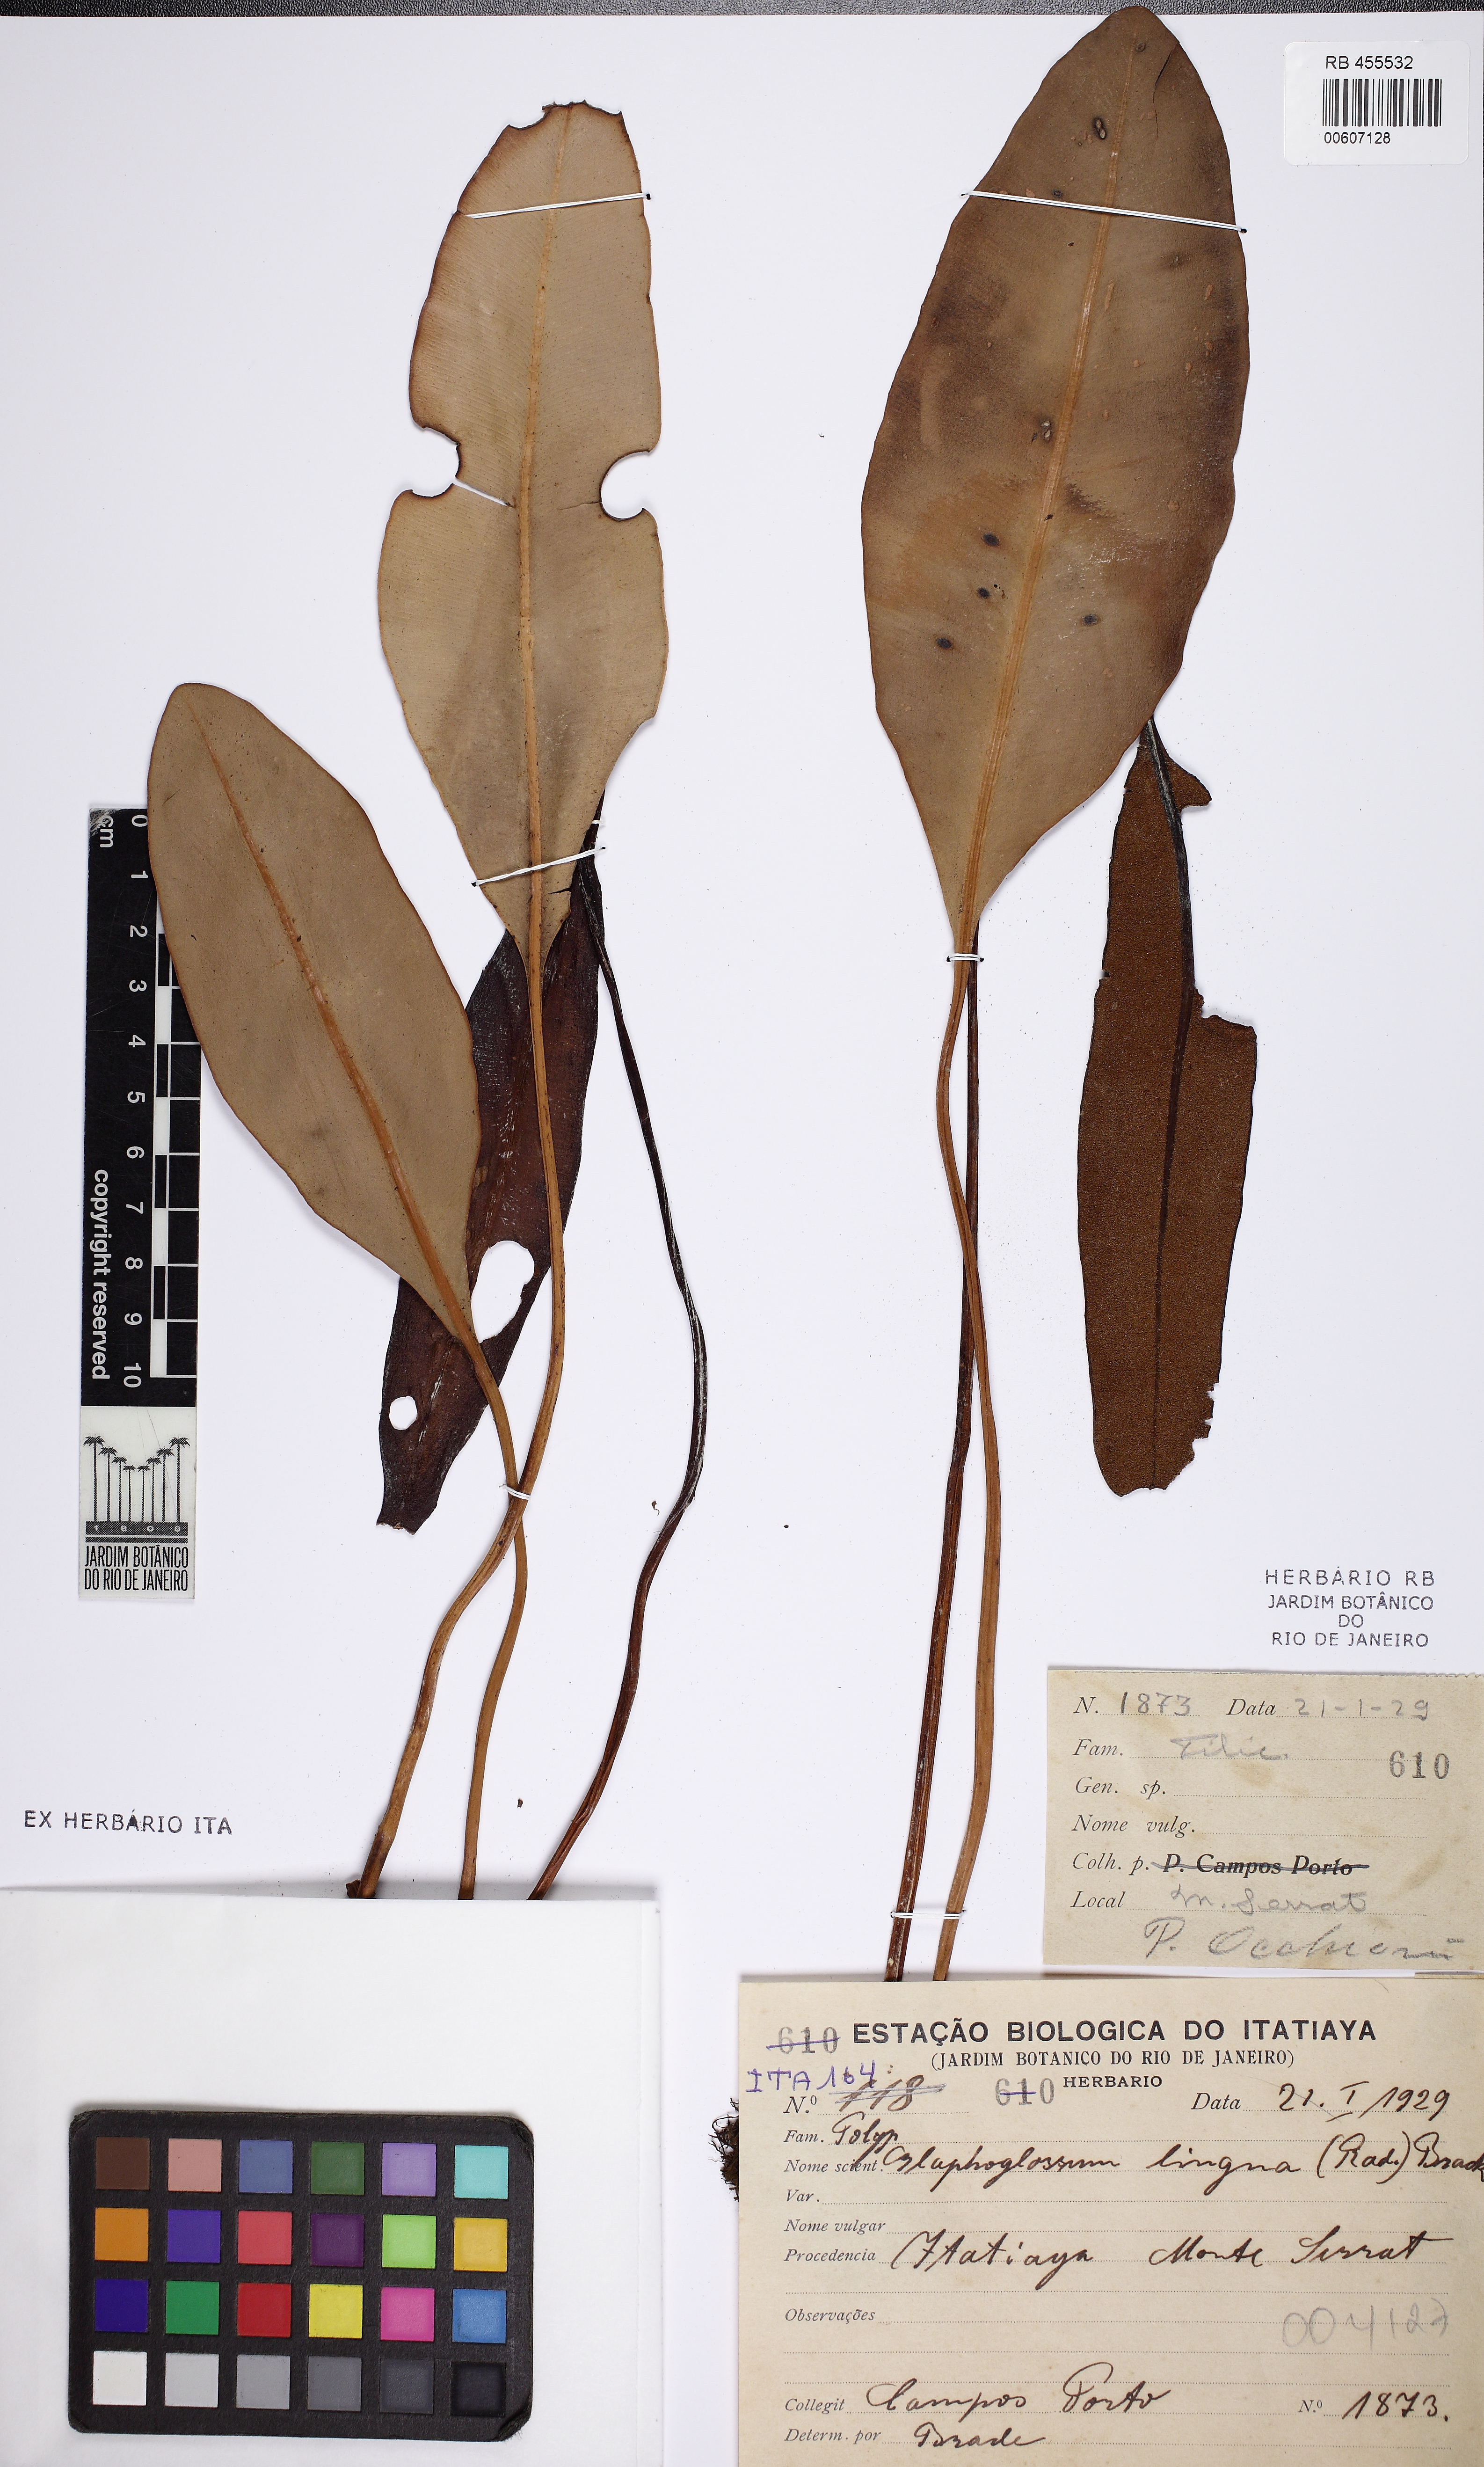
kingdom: Plantae
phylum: Tracheophyta
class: Polypodiopsida
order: Polypodiales
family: Dryopteridaceae
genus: Elaphoglossum
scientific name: Elaphoglossum lingua
